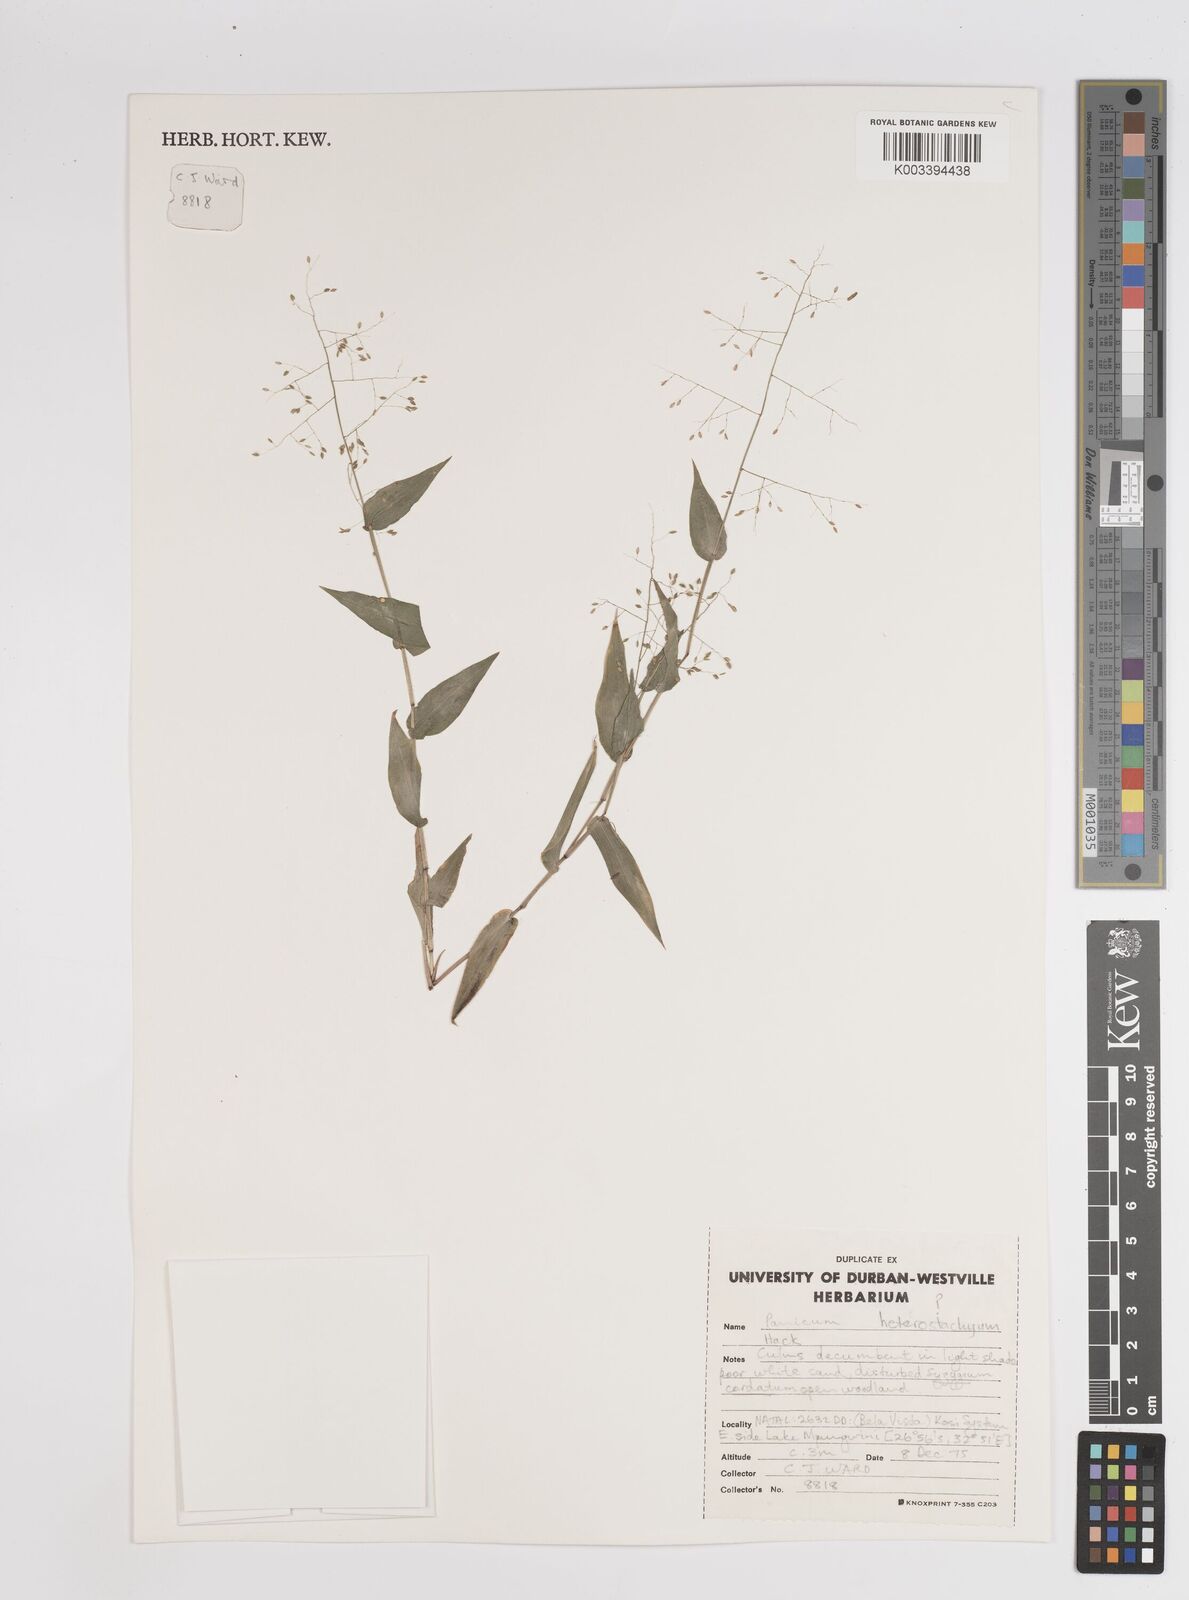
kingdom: Plantae
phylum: Tracheophyta
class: Liliopsida
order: Poales
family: Poaceae
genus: Panicum
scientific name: Panicum
